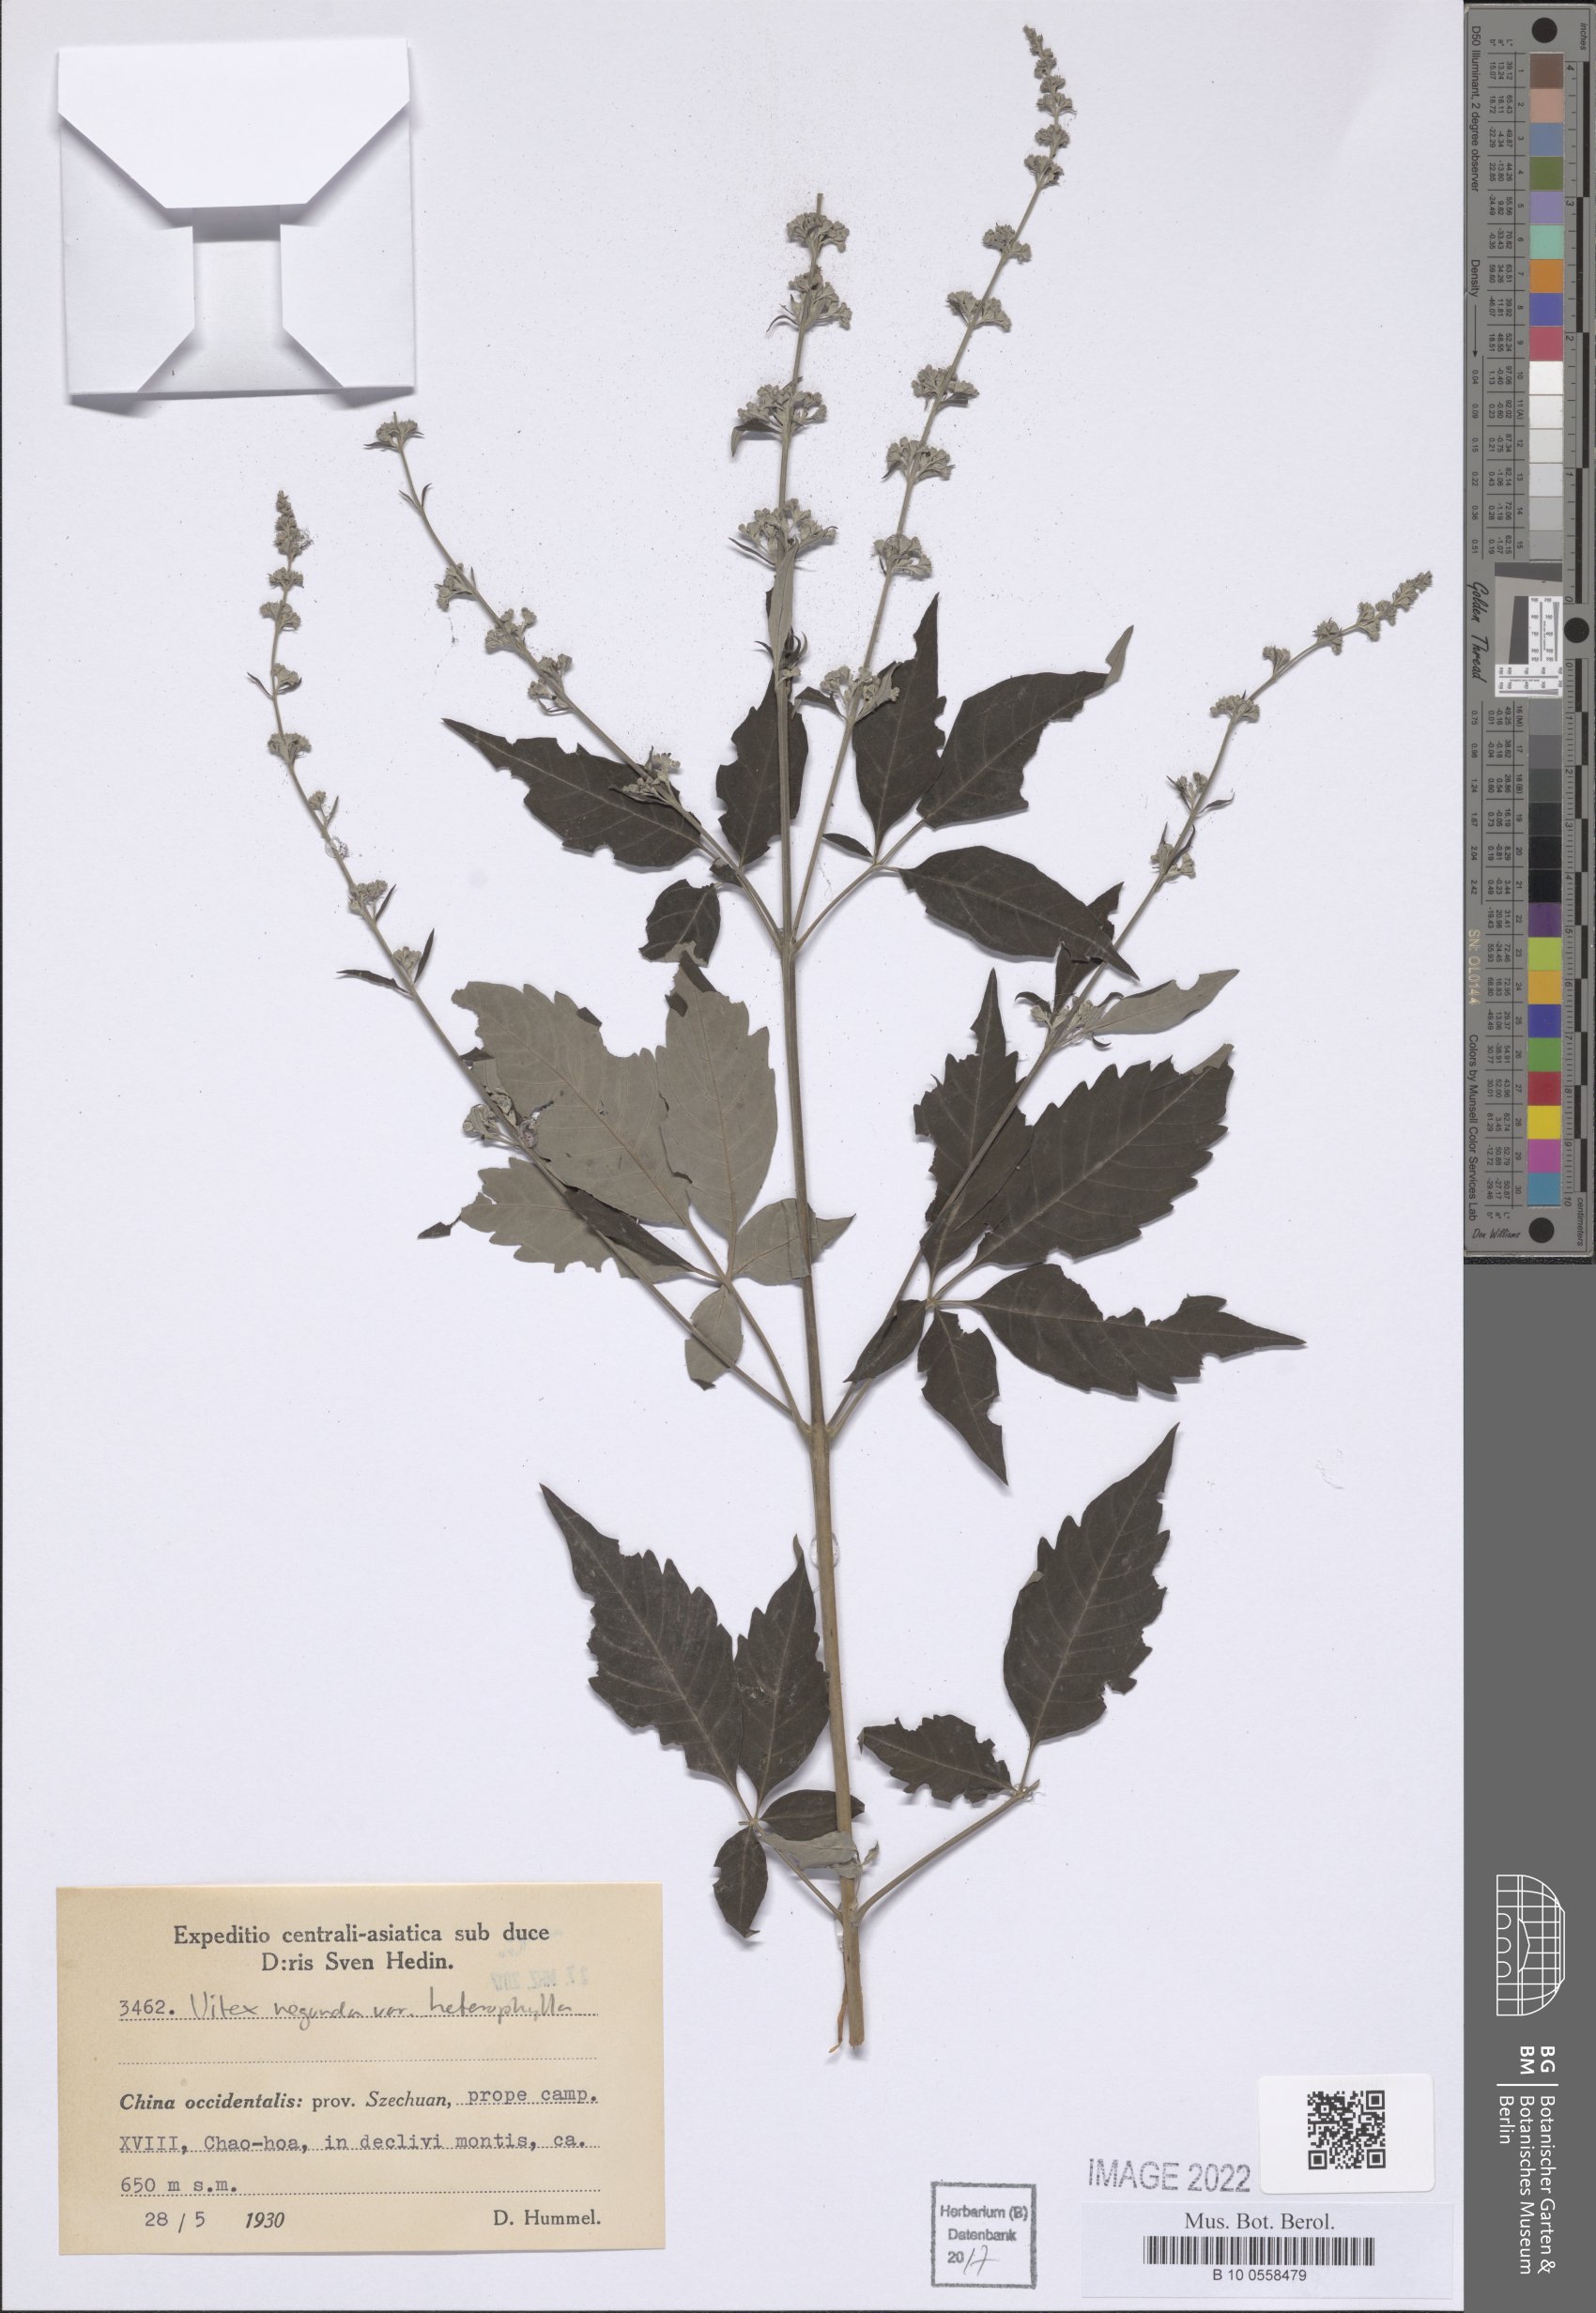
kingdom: Plantae
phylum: Tracheophyta
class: Magnoliopsida
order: Lamiales
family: Lamiaceae
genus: Vitex
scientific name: Vitex negundo
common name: Chinese chastetree
